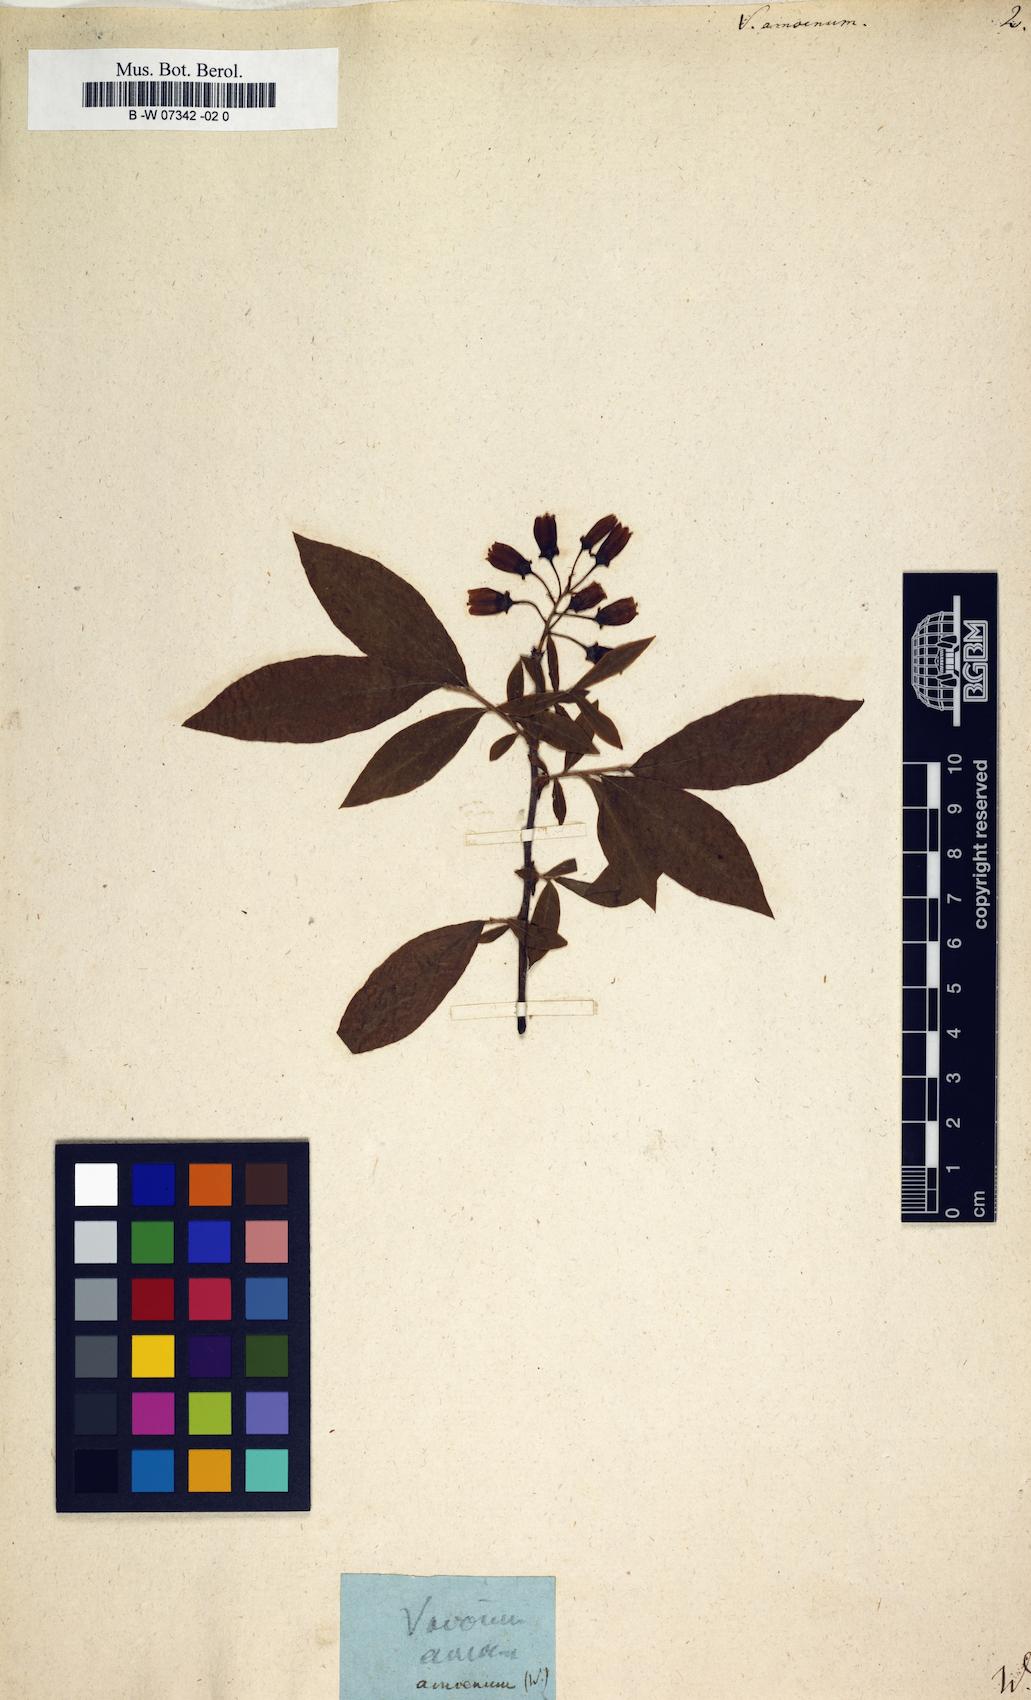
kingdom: Plantae
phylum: Tracheophyta
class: Magnoliopsida
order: Ericales
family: Ericaceae
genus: Vaccinium
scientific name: Vaccinium corymbosum
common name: Blueberry
